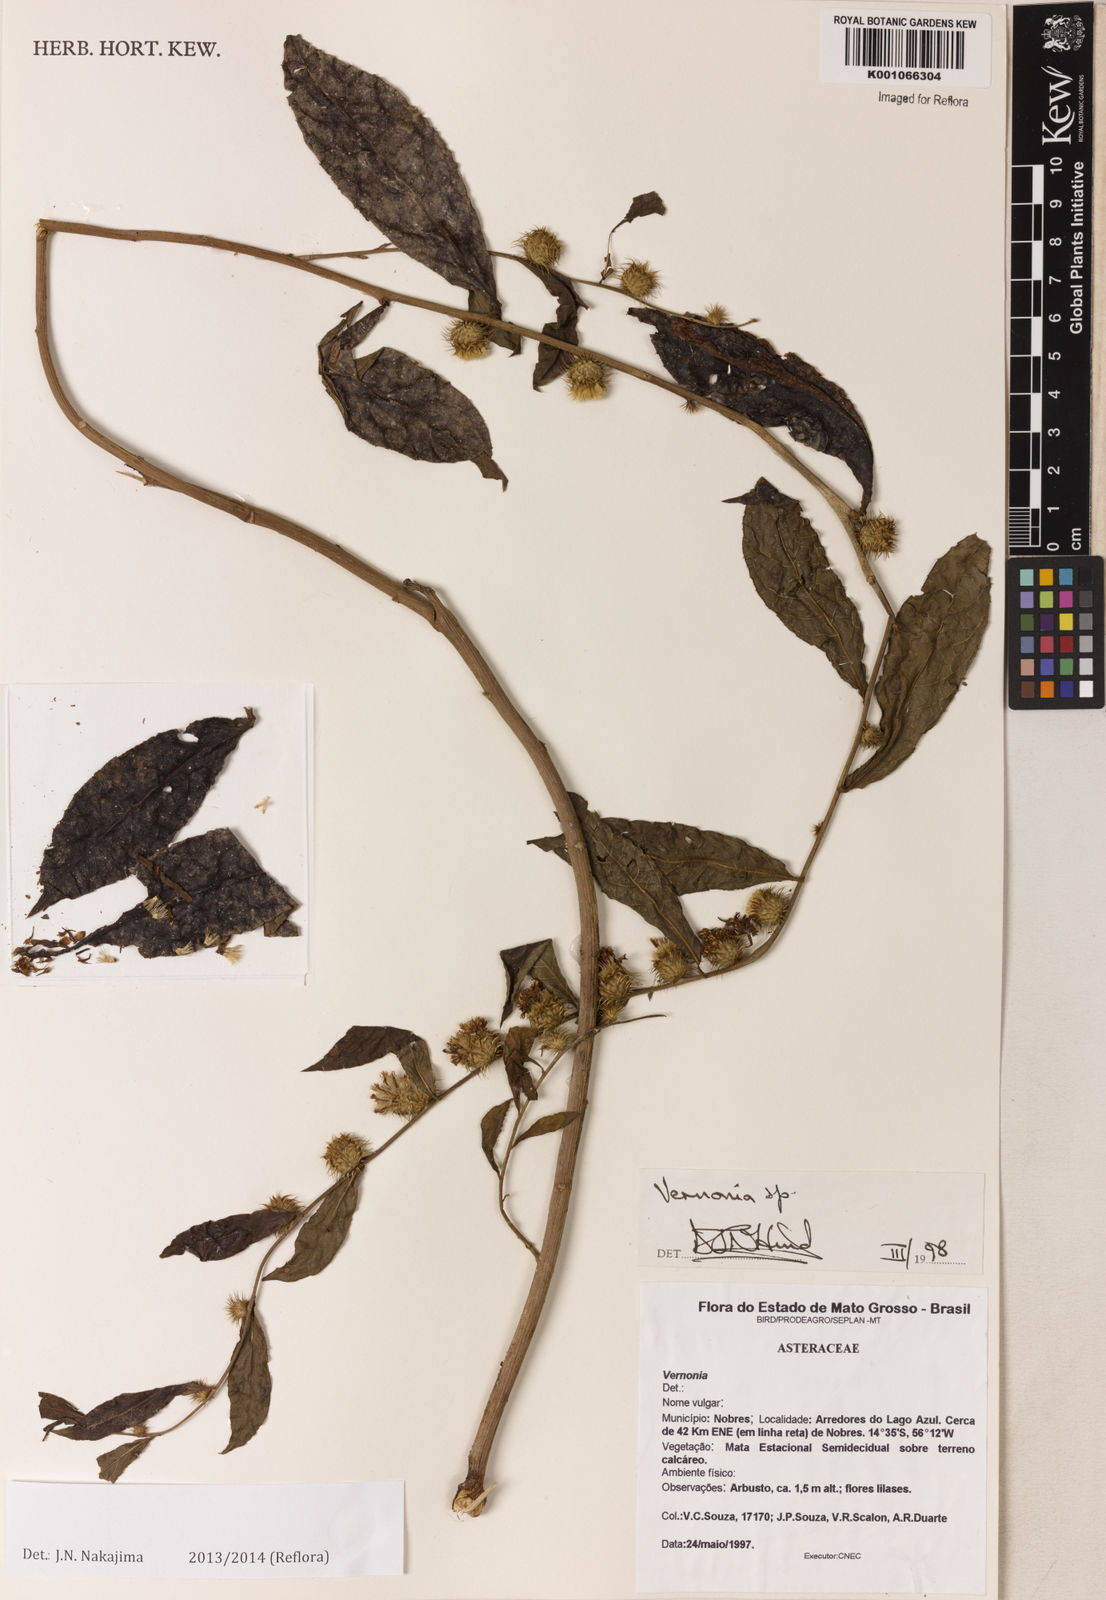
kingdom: Plantae
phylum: Tracheophyta
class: Magnoliopsida
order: Asterales
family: Asteraceae
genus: Lessingianthus
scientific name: Lessingianthus longicuspis
